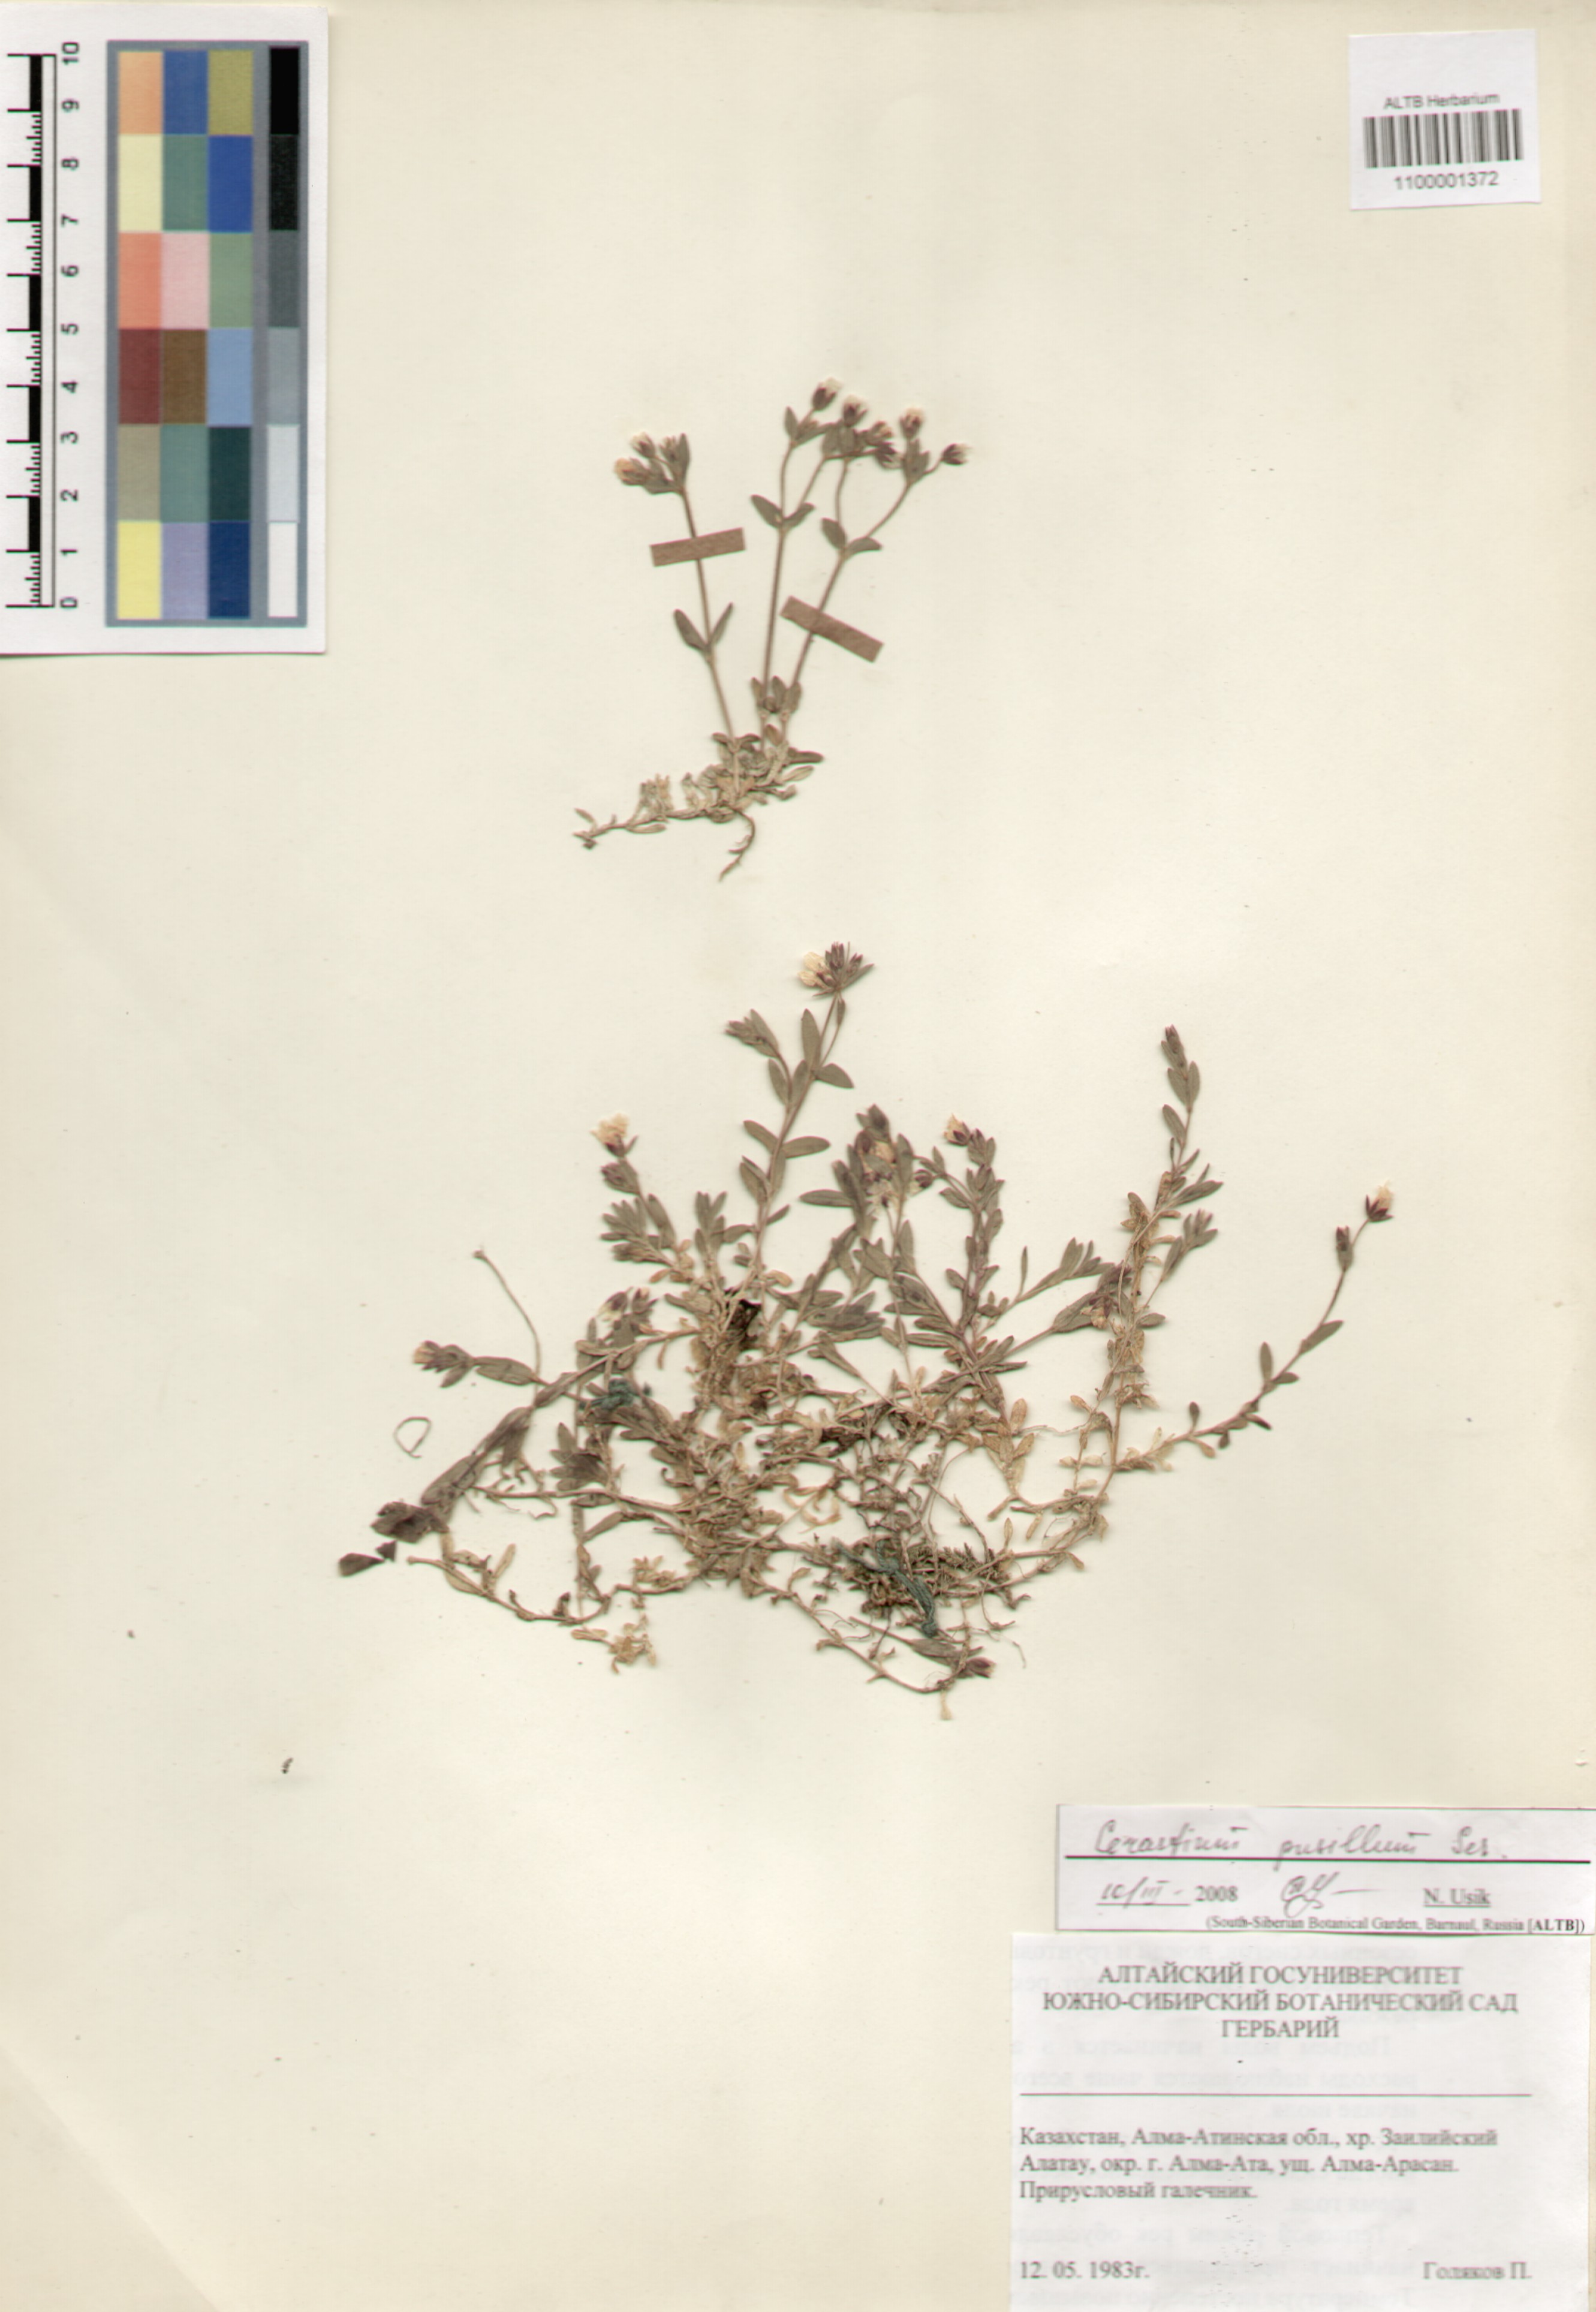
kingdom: Plantae
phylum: Tracheophyta
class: Magnoliopsida
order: Caryophyllales
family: Caryophyllaceae
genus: Cerastium
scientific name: Cerastium pusillum
